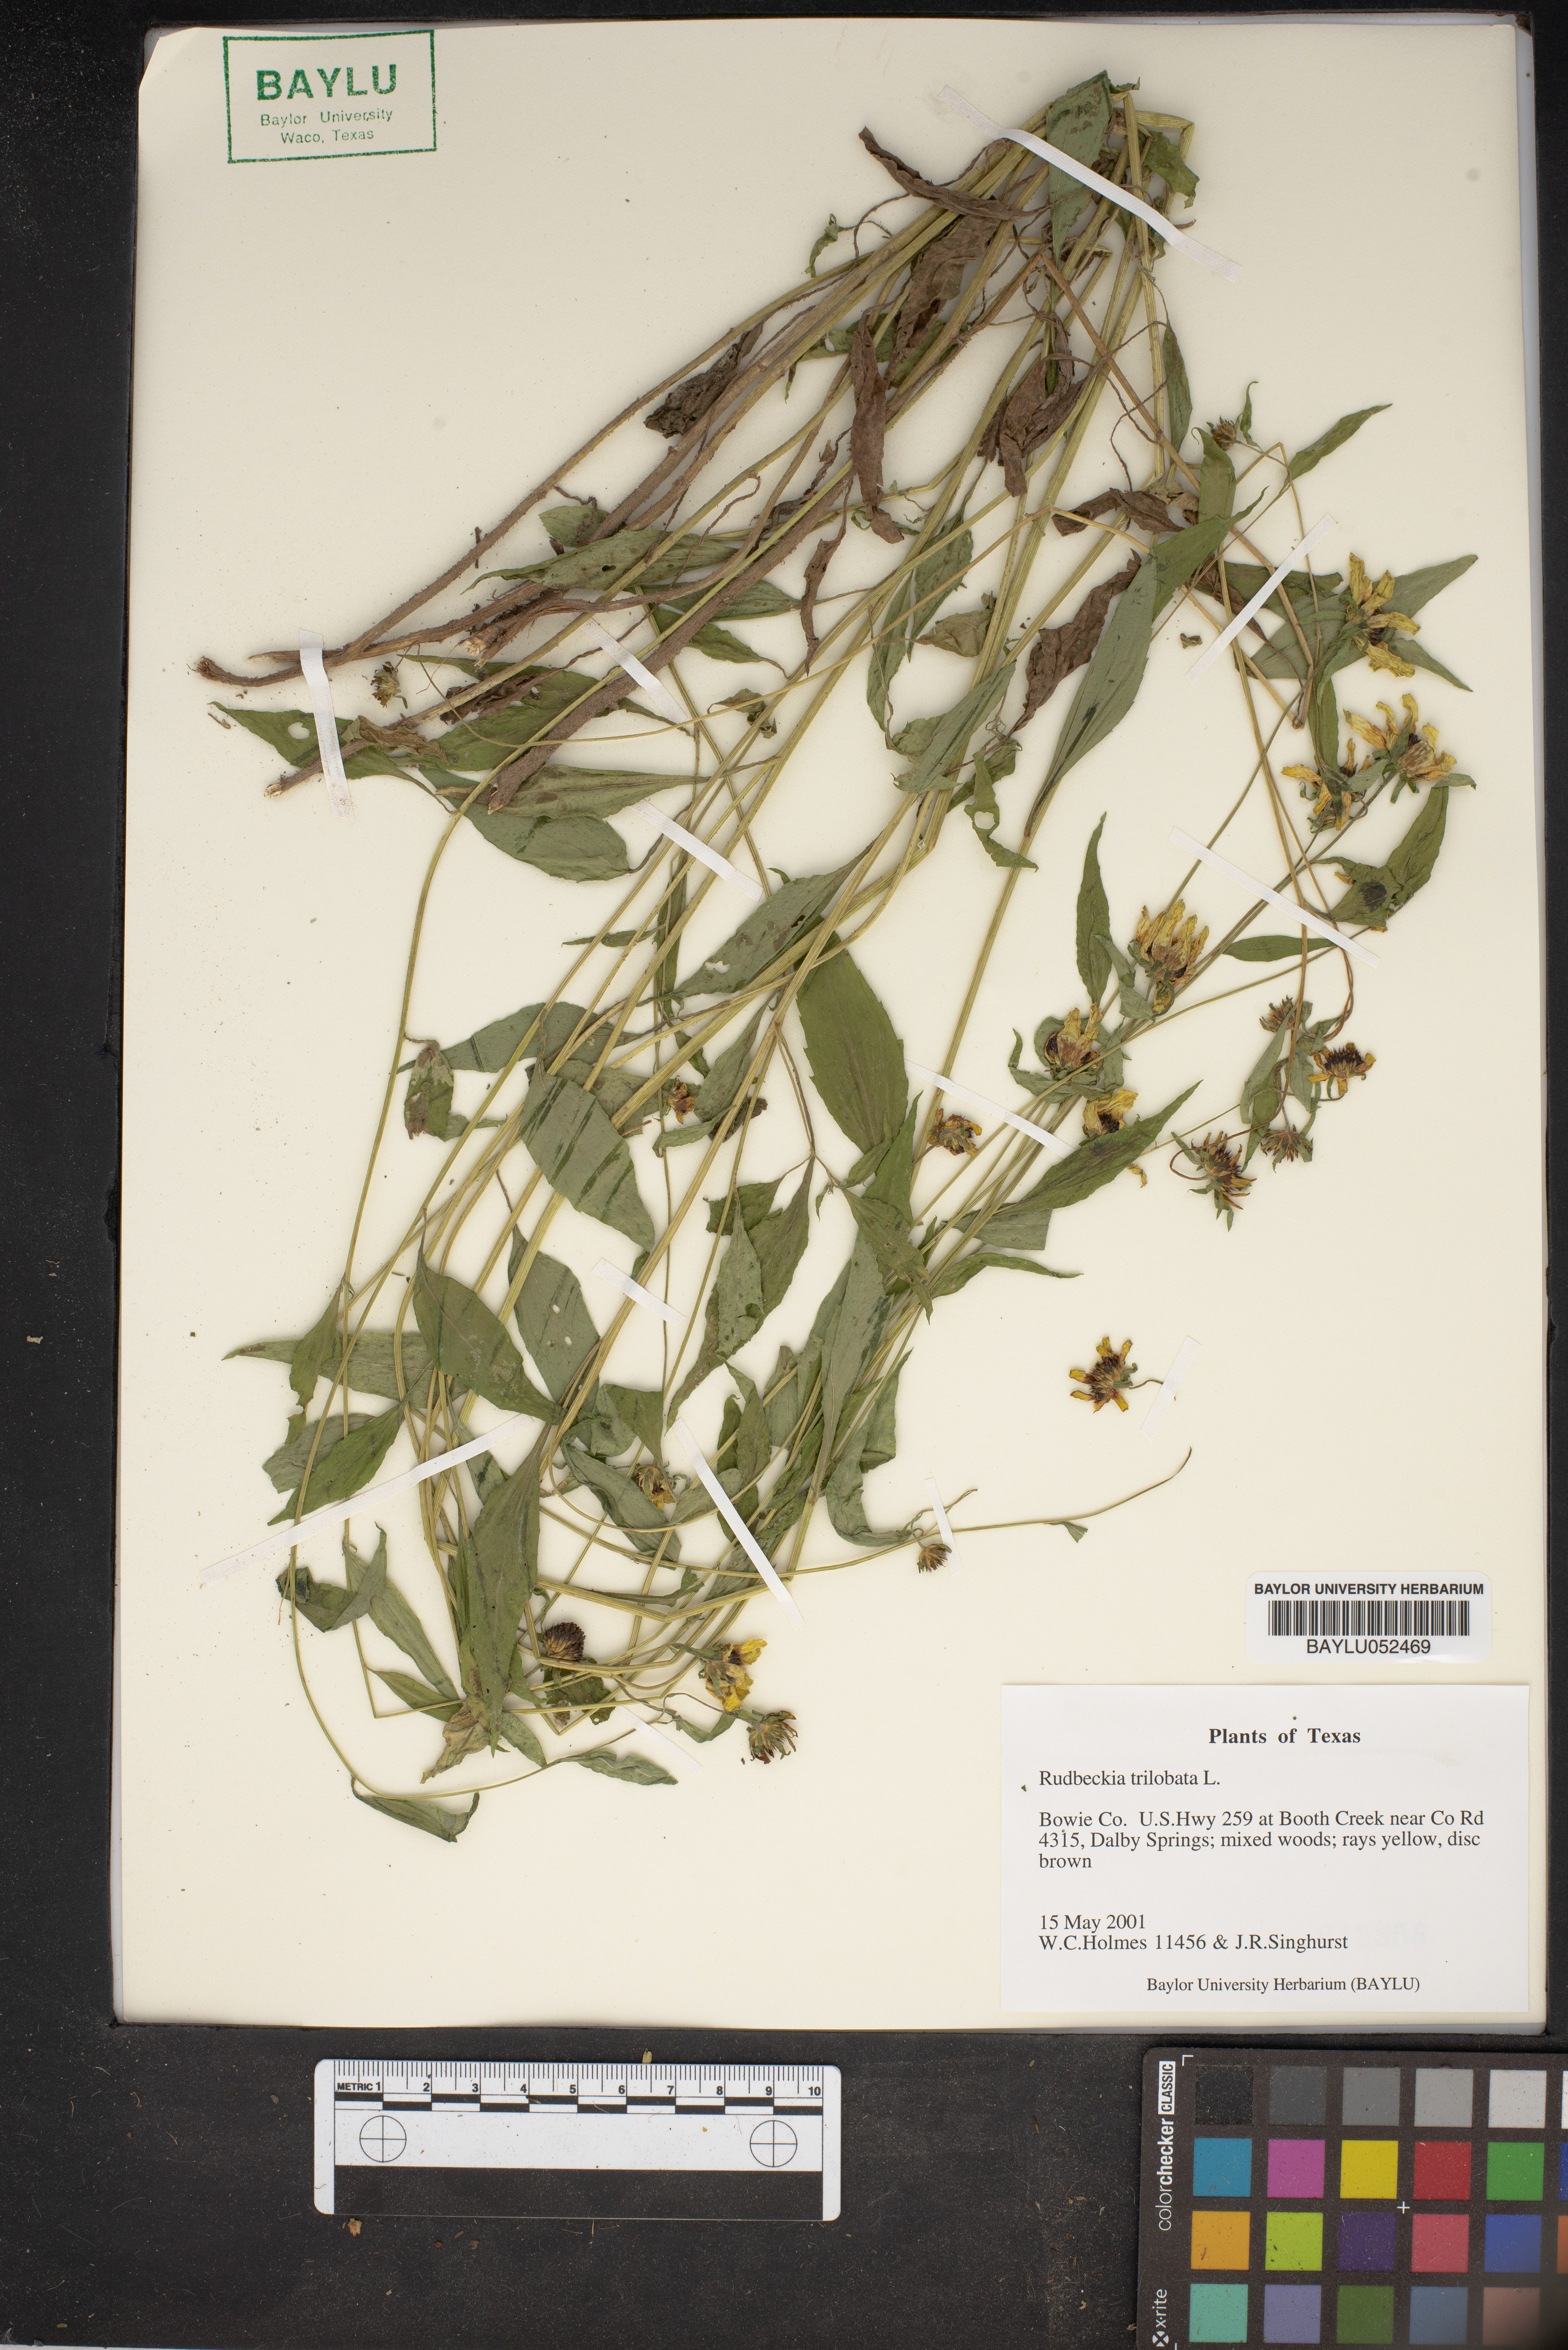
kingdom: Plantae
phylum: Tracheophyta
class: Magnoliopsida
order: Asterales
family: Asteraceae
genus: Rudbeckia
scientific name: Rudbeckia triloba
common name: Thin-leaved coneflower
